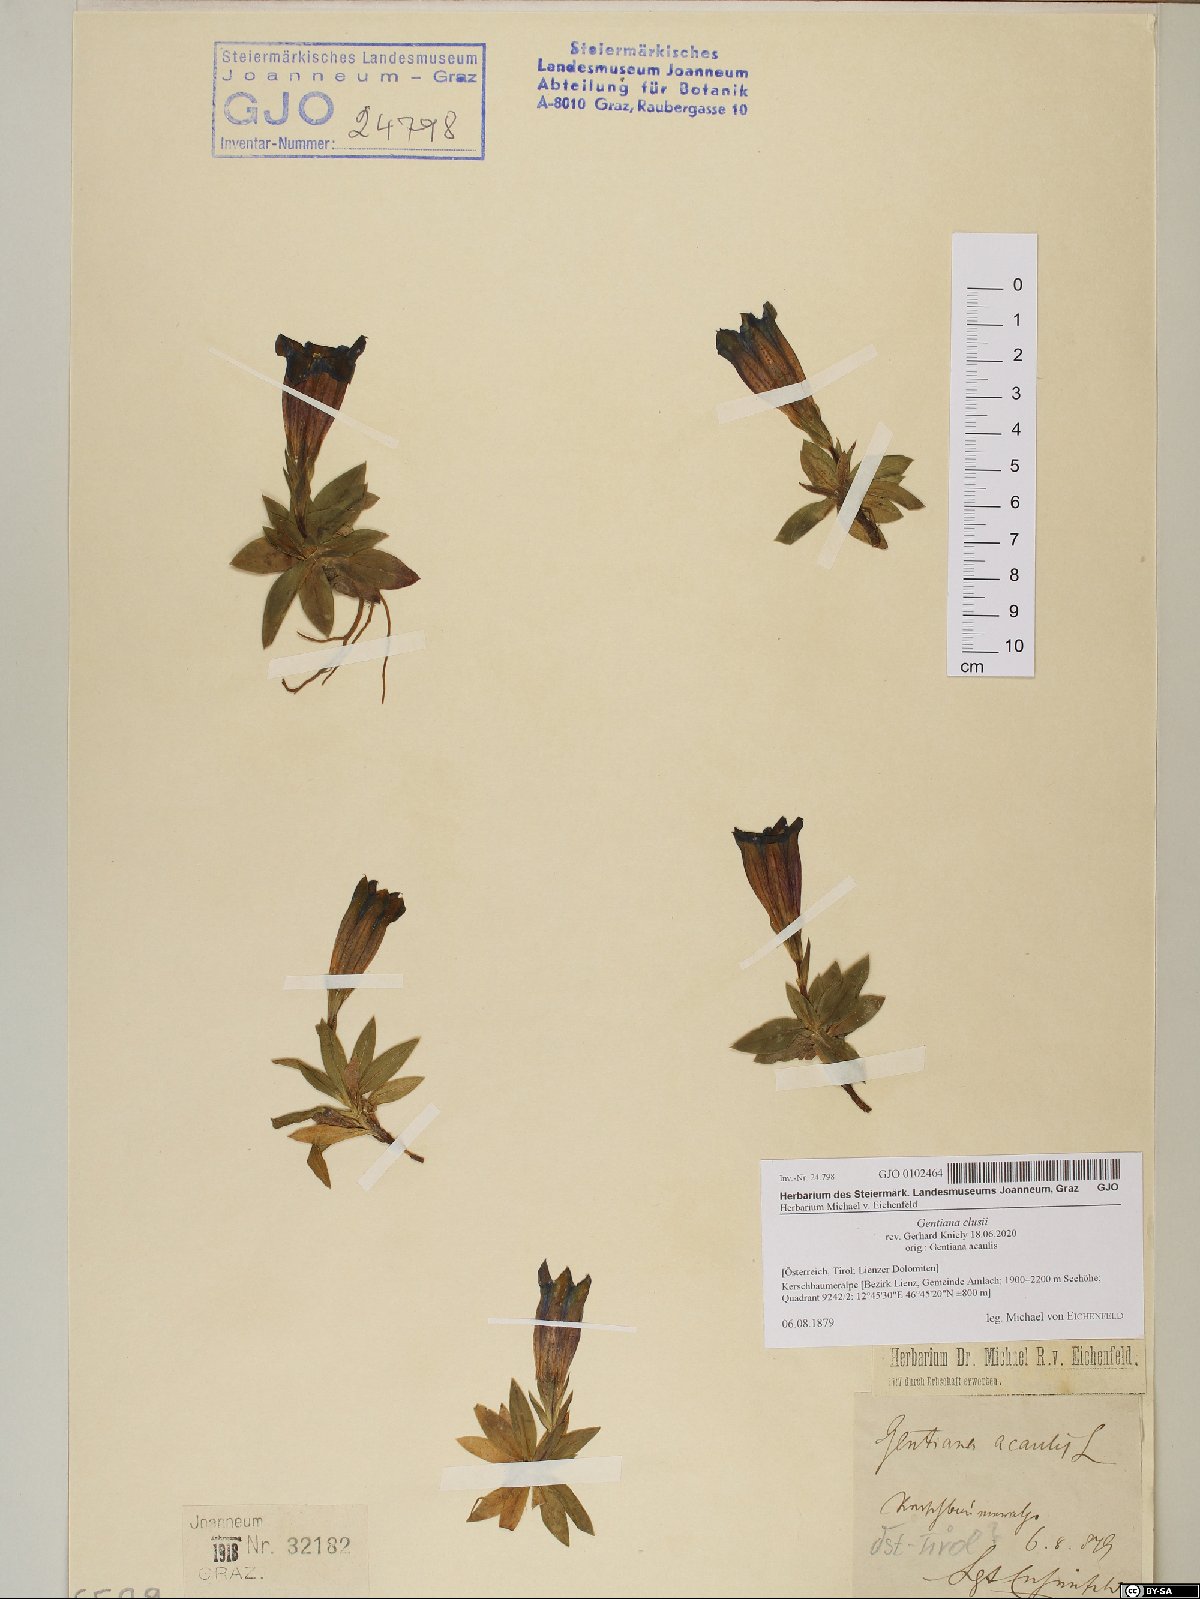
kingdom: Plantae
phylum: Tracheophyta
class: Magnoliopsida
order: Gentianales
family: Gentianaceae
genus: Gentiana
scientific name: Gentiana clusii
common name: Trumpet gentian
